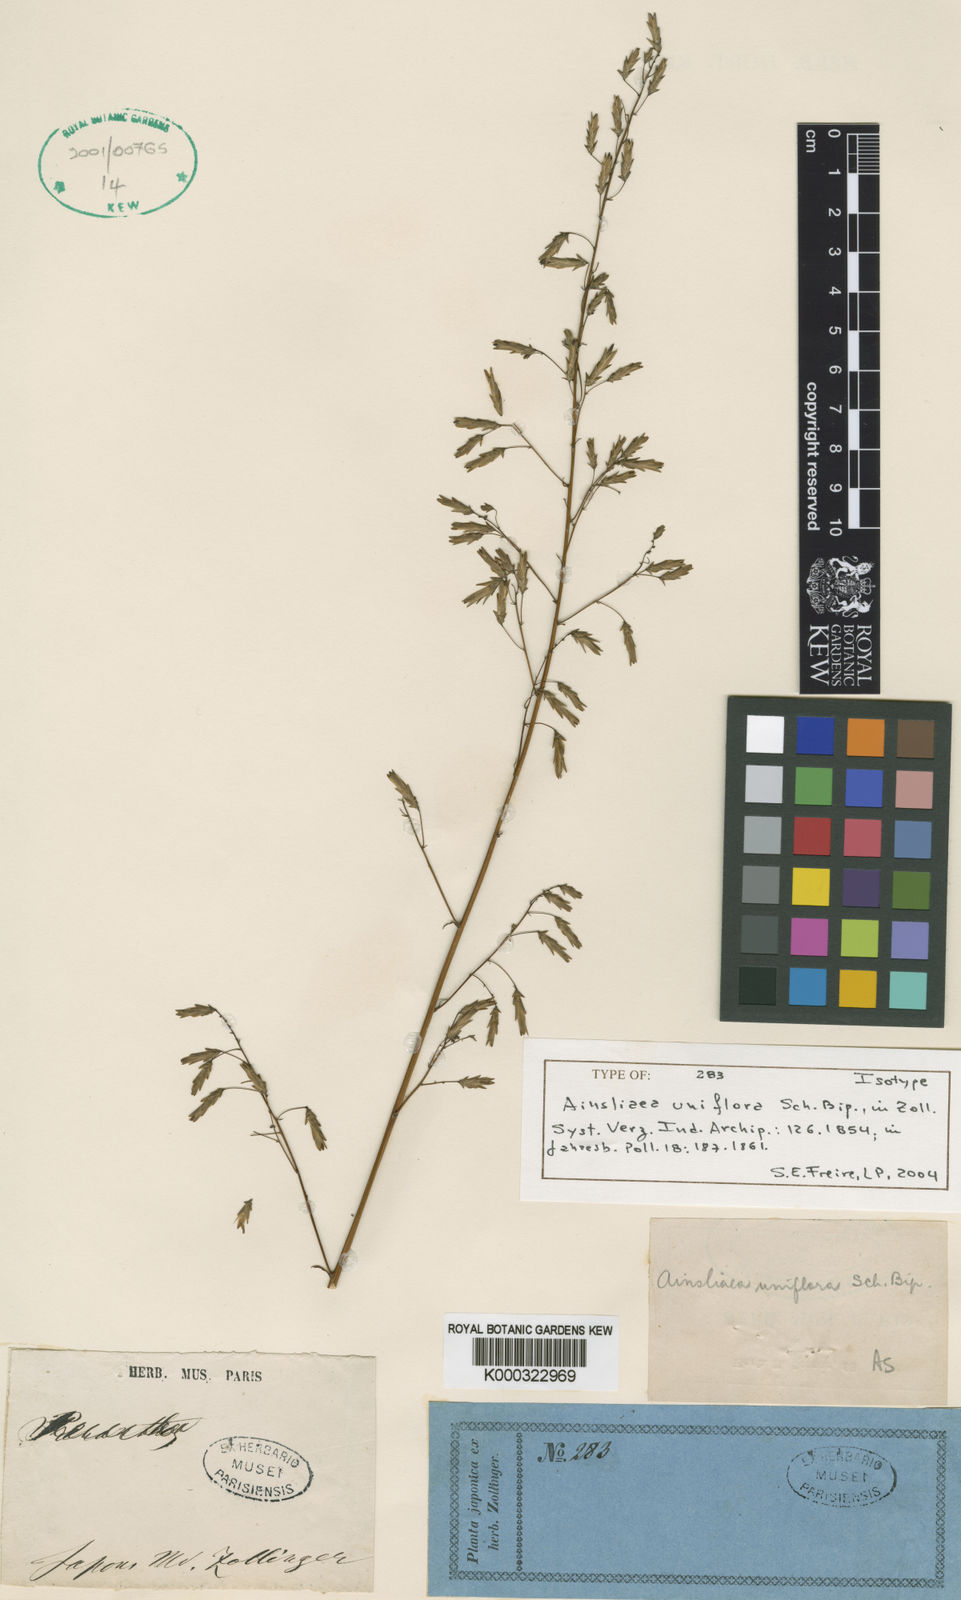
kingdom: Plantae
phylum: Tracheophyta
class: Magnoliopsida
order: Asterales
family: Asteraceae
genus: Ainsliaea
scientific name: Ainsliaea uniflora
